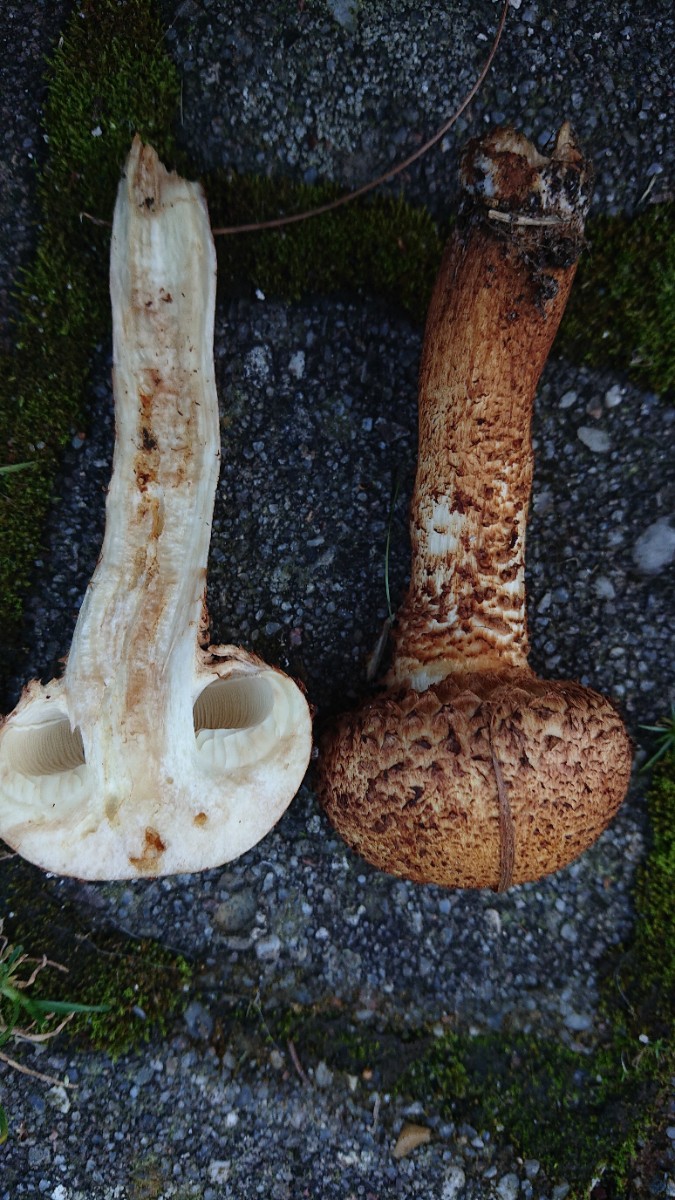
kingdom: Fungi
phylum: Basidiomycota
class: Agaricomycetes
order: Agaricales
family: Strophariaceae
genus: Pholiota
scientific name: Pholiota squarrosa
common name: krumskællet skælhat
